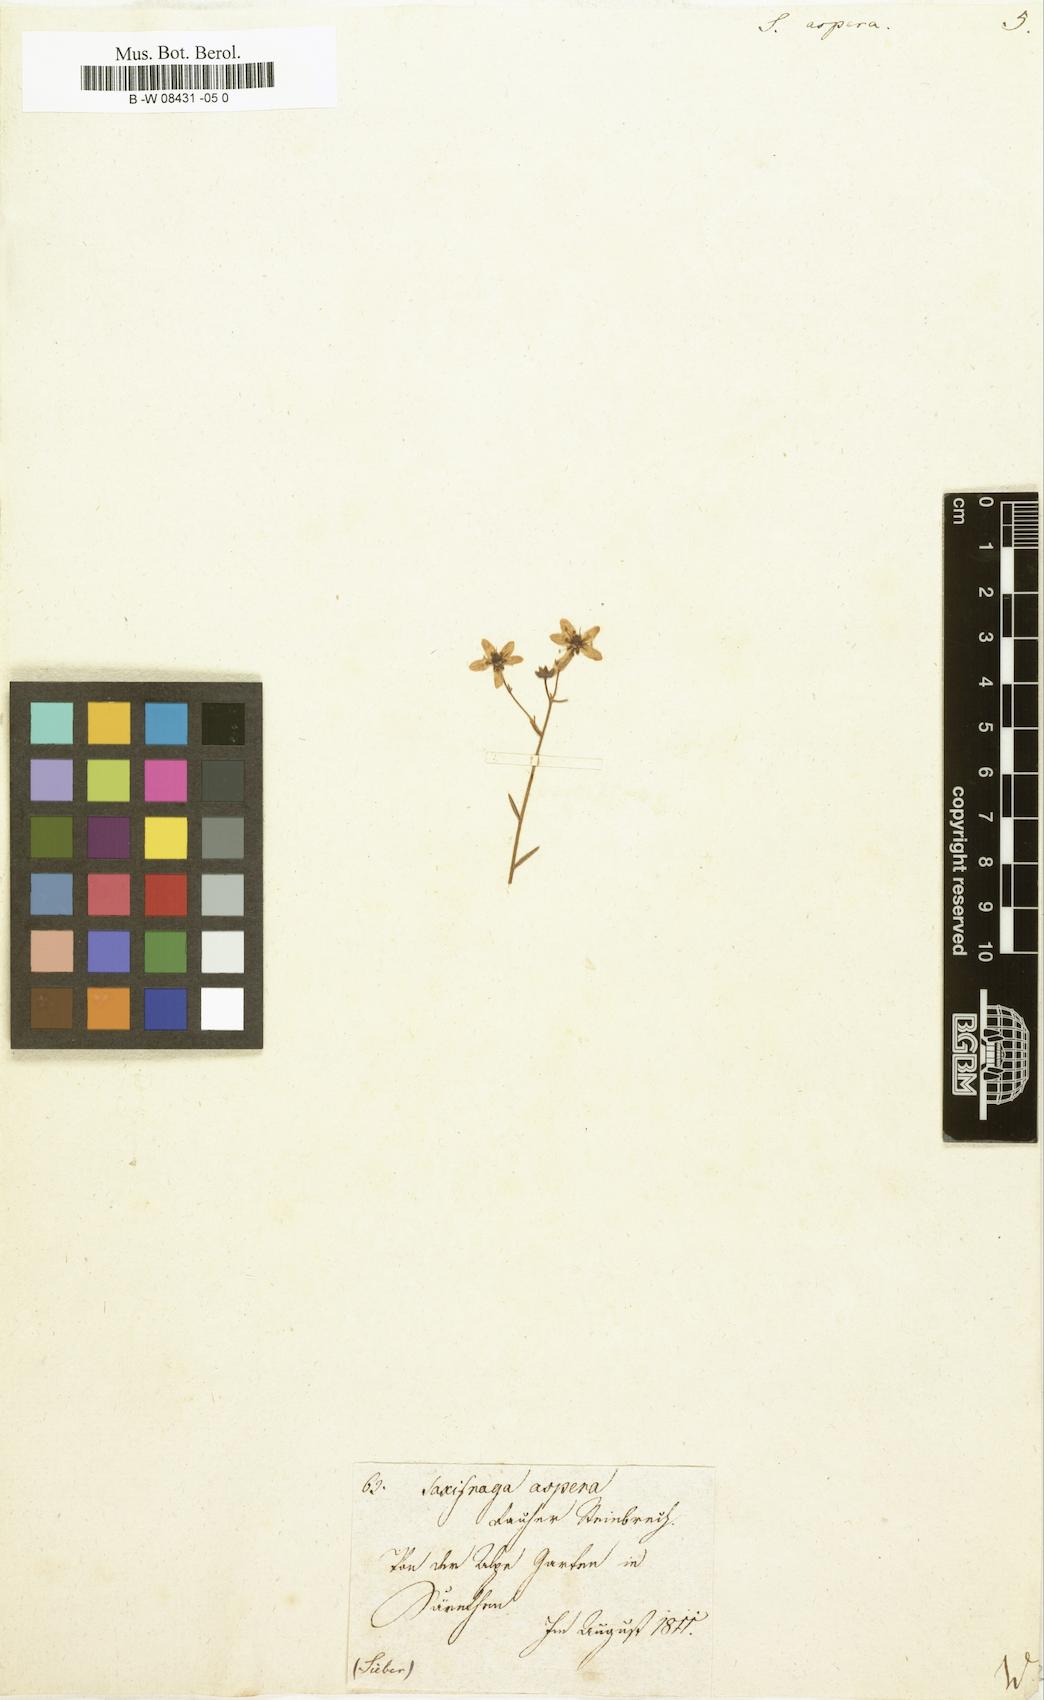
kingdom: Plantae
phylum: Tracheophyta
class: Magnoliopsida
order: Saxifragales
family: Saxifragaceae
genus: Saxifraga
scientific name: Saxifraga aspera
